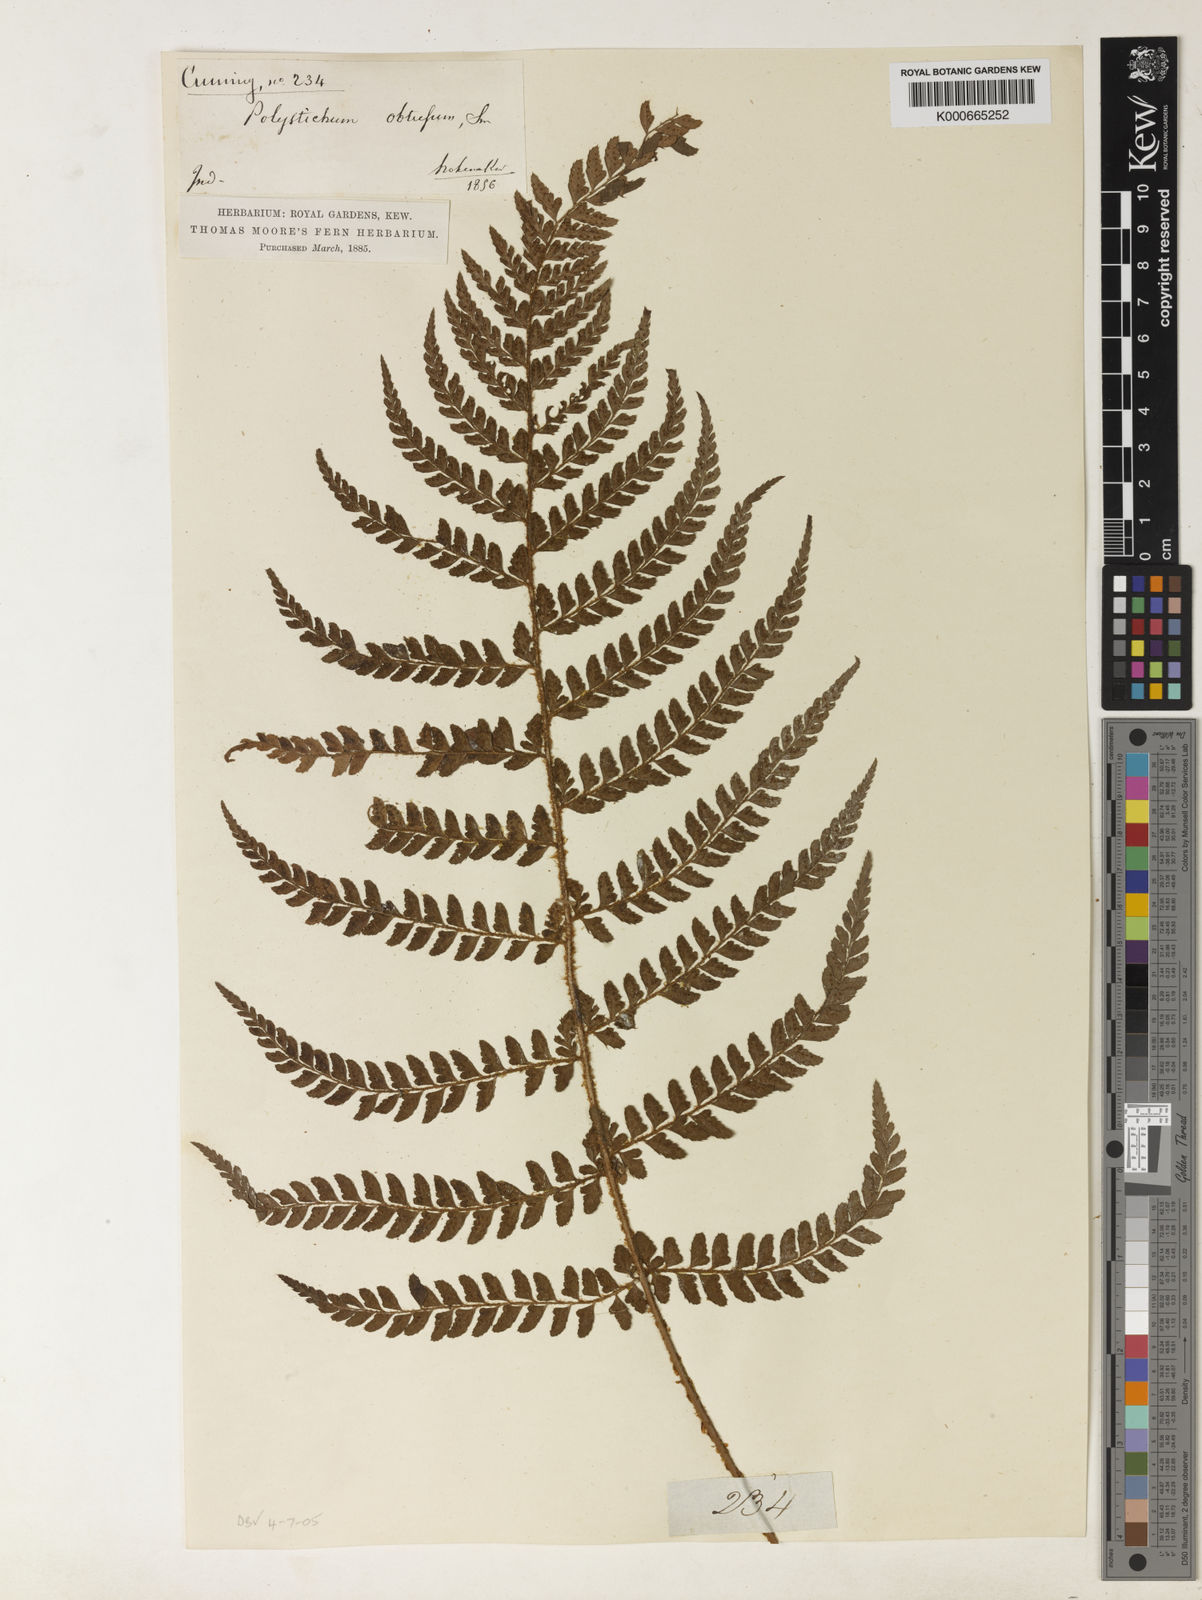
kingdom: Plantae
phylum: Tracheophyta
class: Polypodiopsida
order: Polypodiales
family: Dryopteridaceae
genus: Polystichum
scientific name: Polystichum
